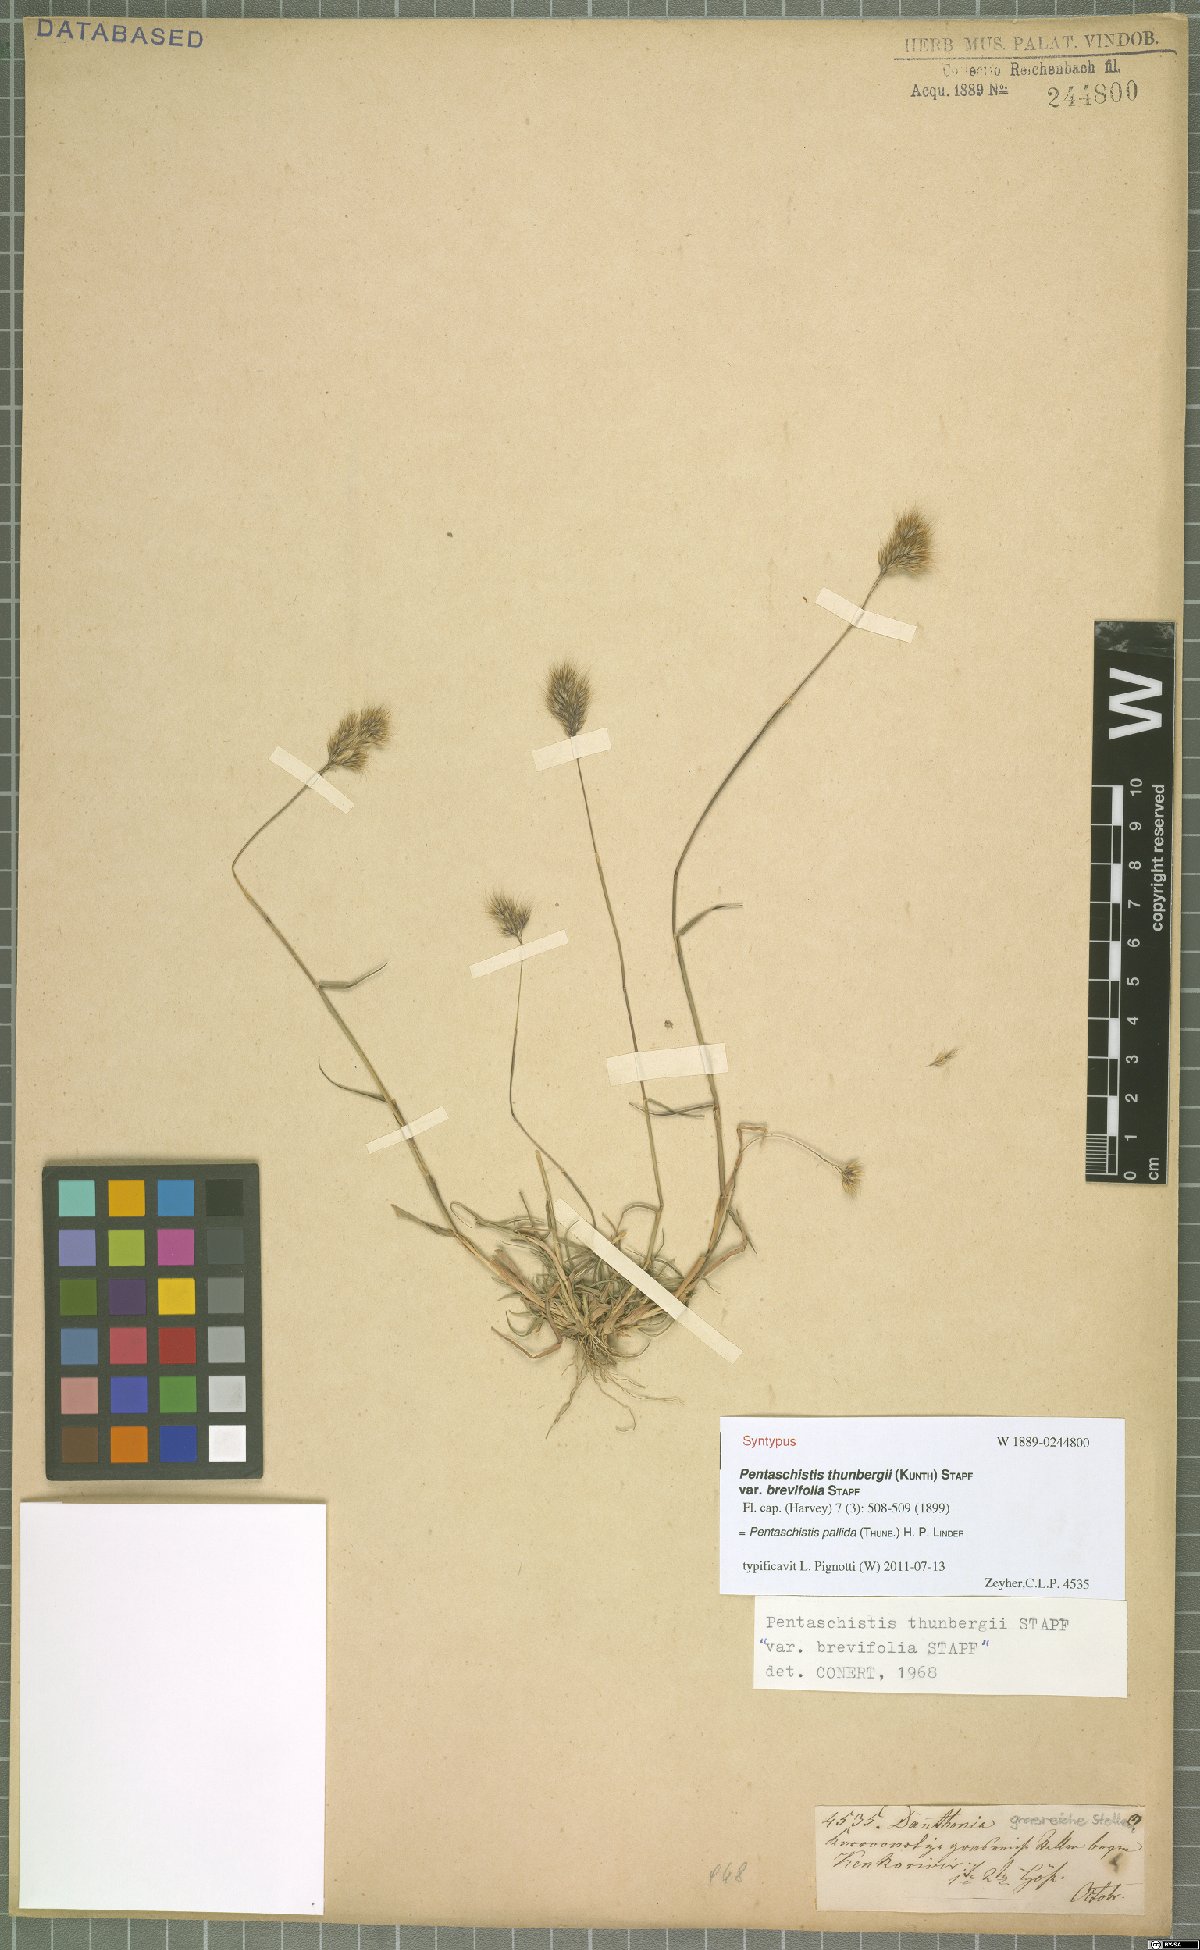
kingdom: Plantae
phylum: Tracheophyta
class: Liliopsida
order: Poales
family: Poaceae
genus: Pentameris
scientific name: Pentameris pallida
